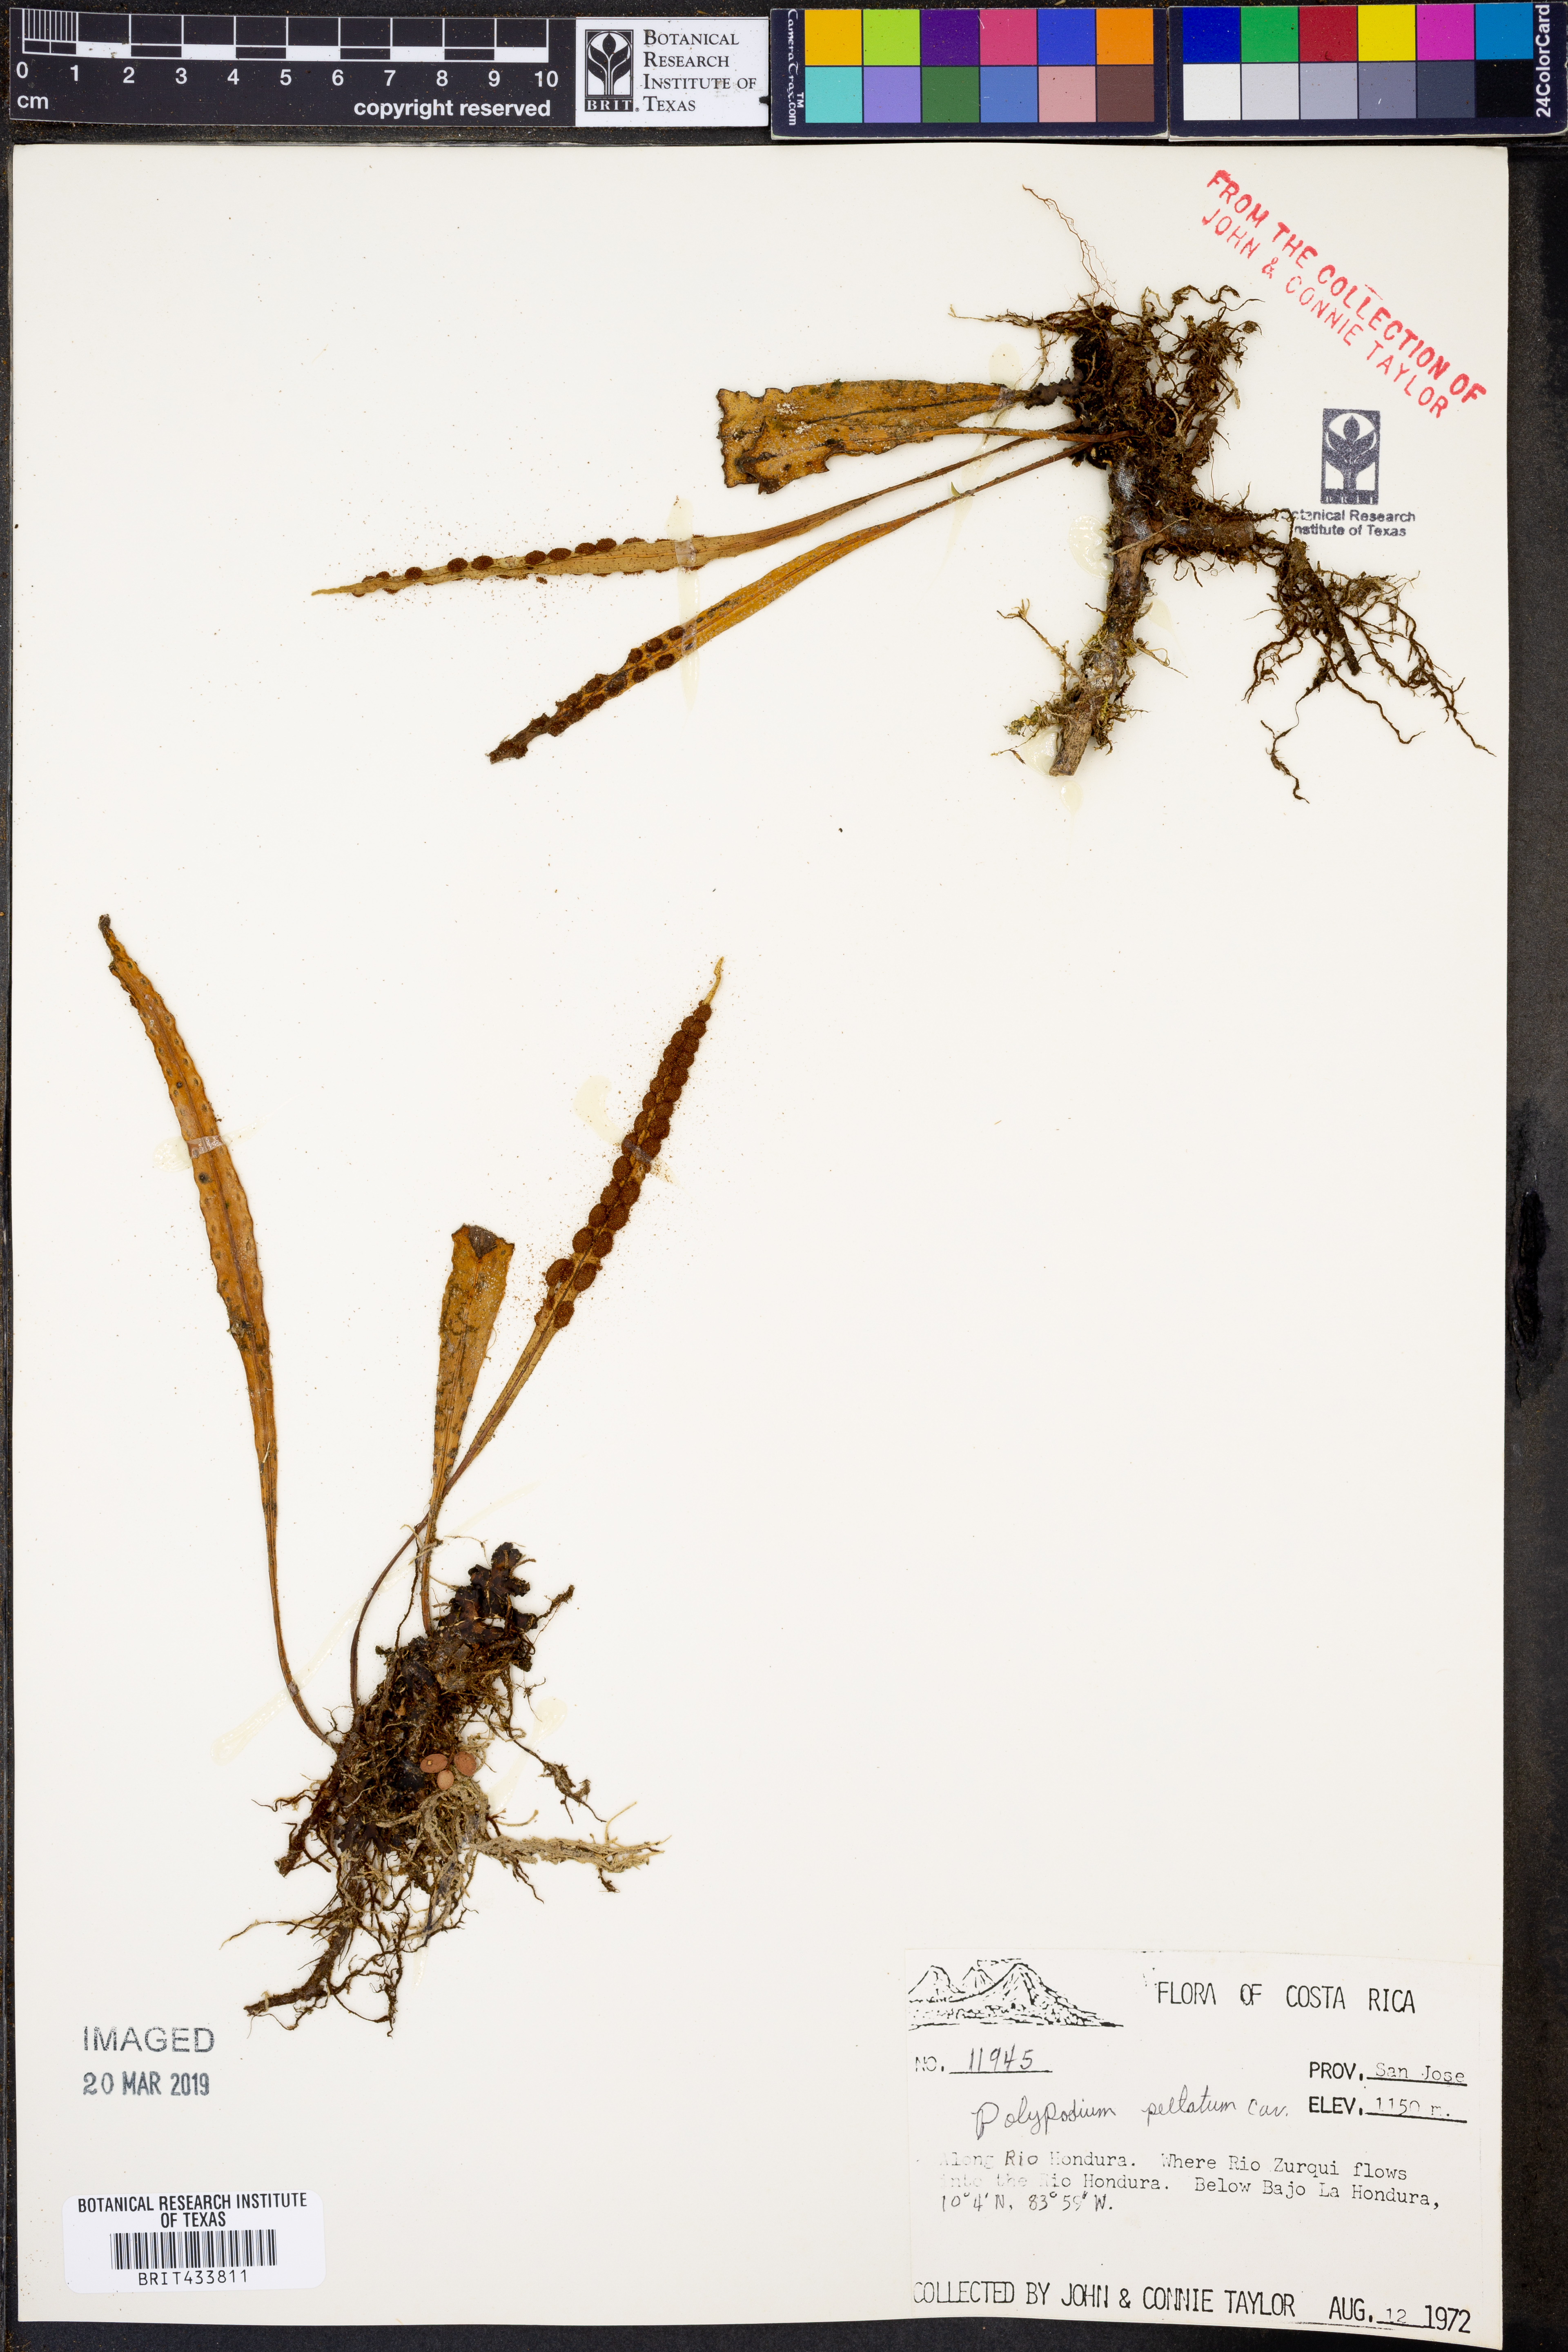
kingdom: Plantae
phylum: Tracheophyta
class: Polypodiopsida
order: Polypodiales
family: Polypodiaceae
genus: Pleopeltis
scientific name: Pleopeltis astrolepis
